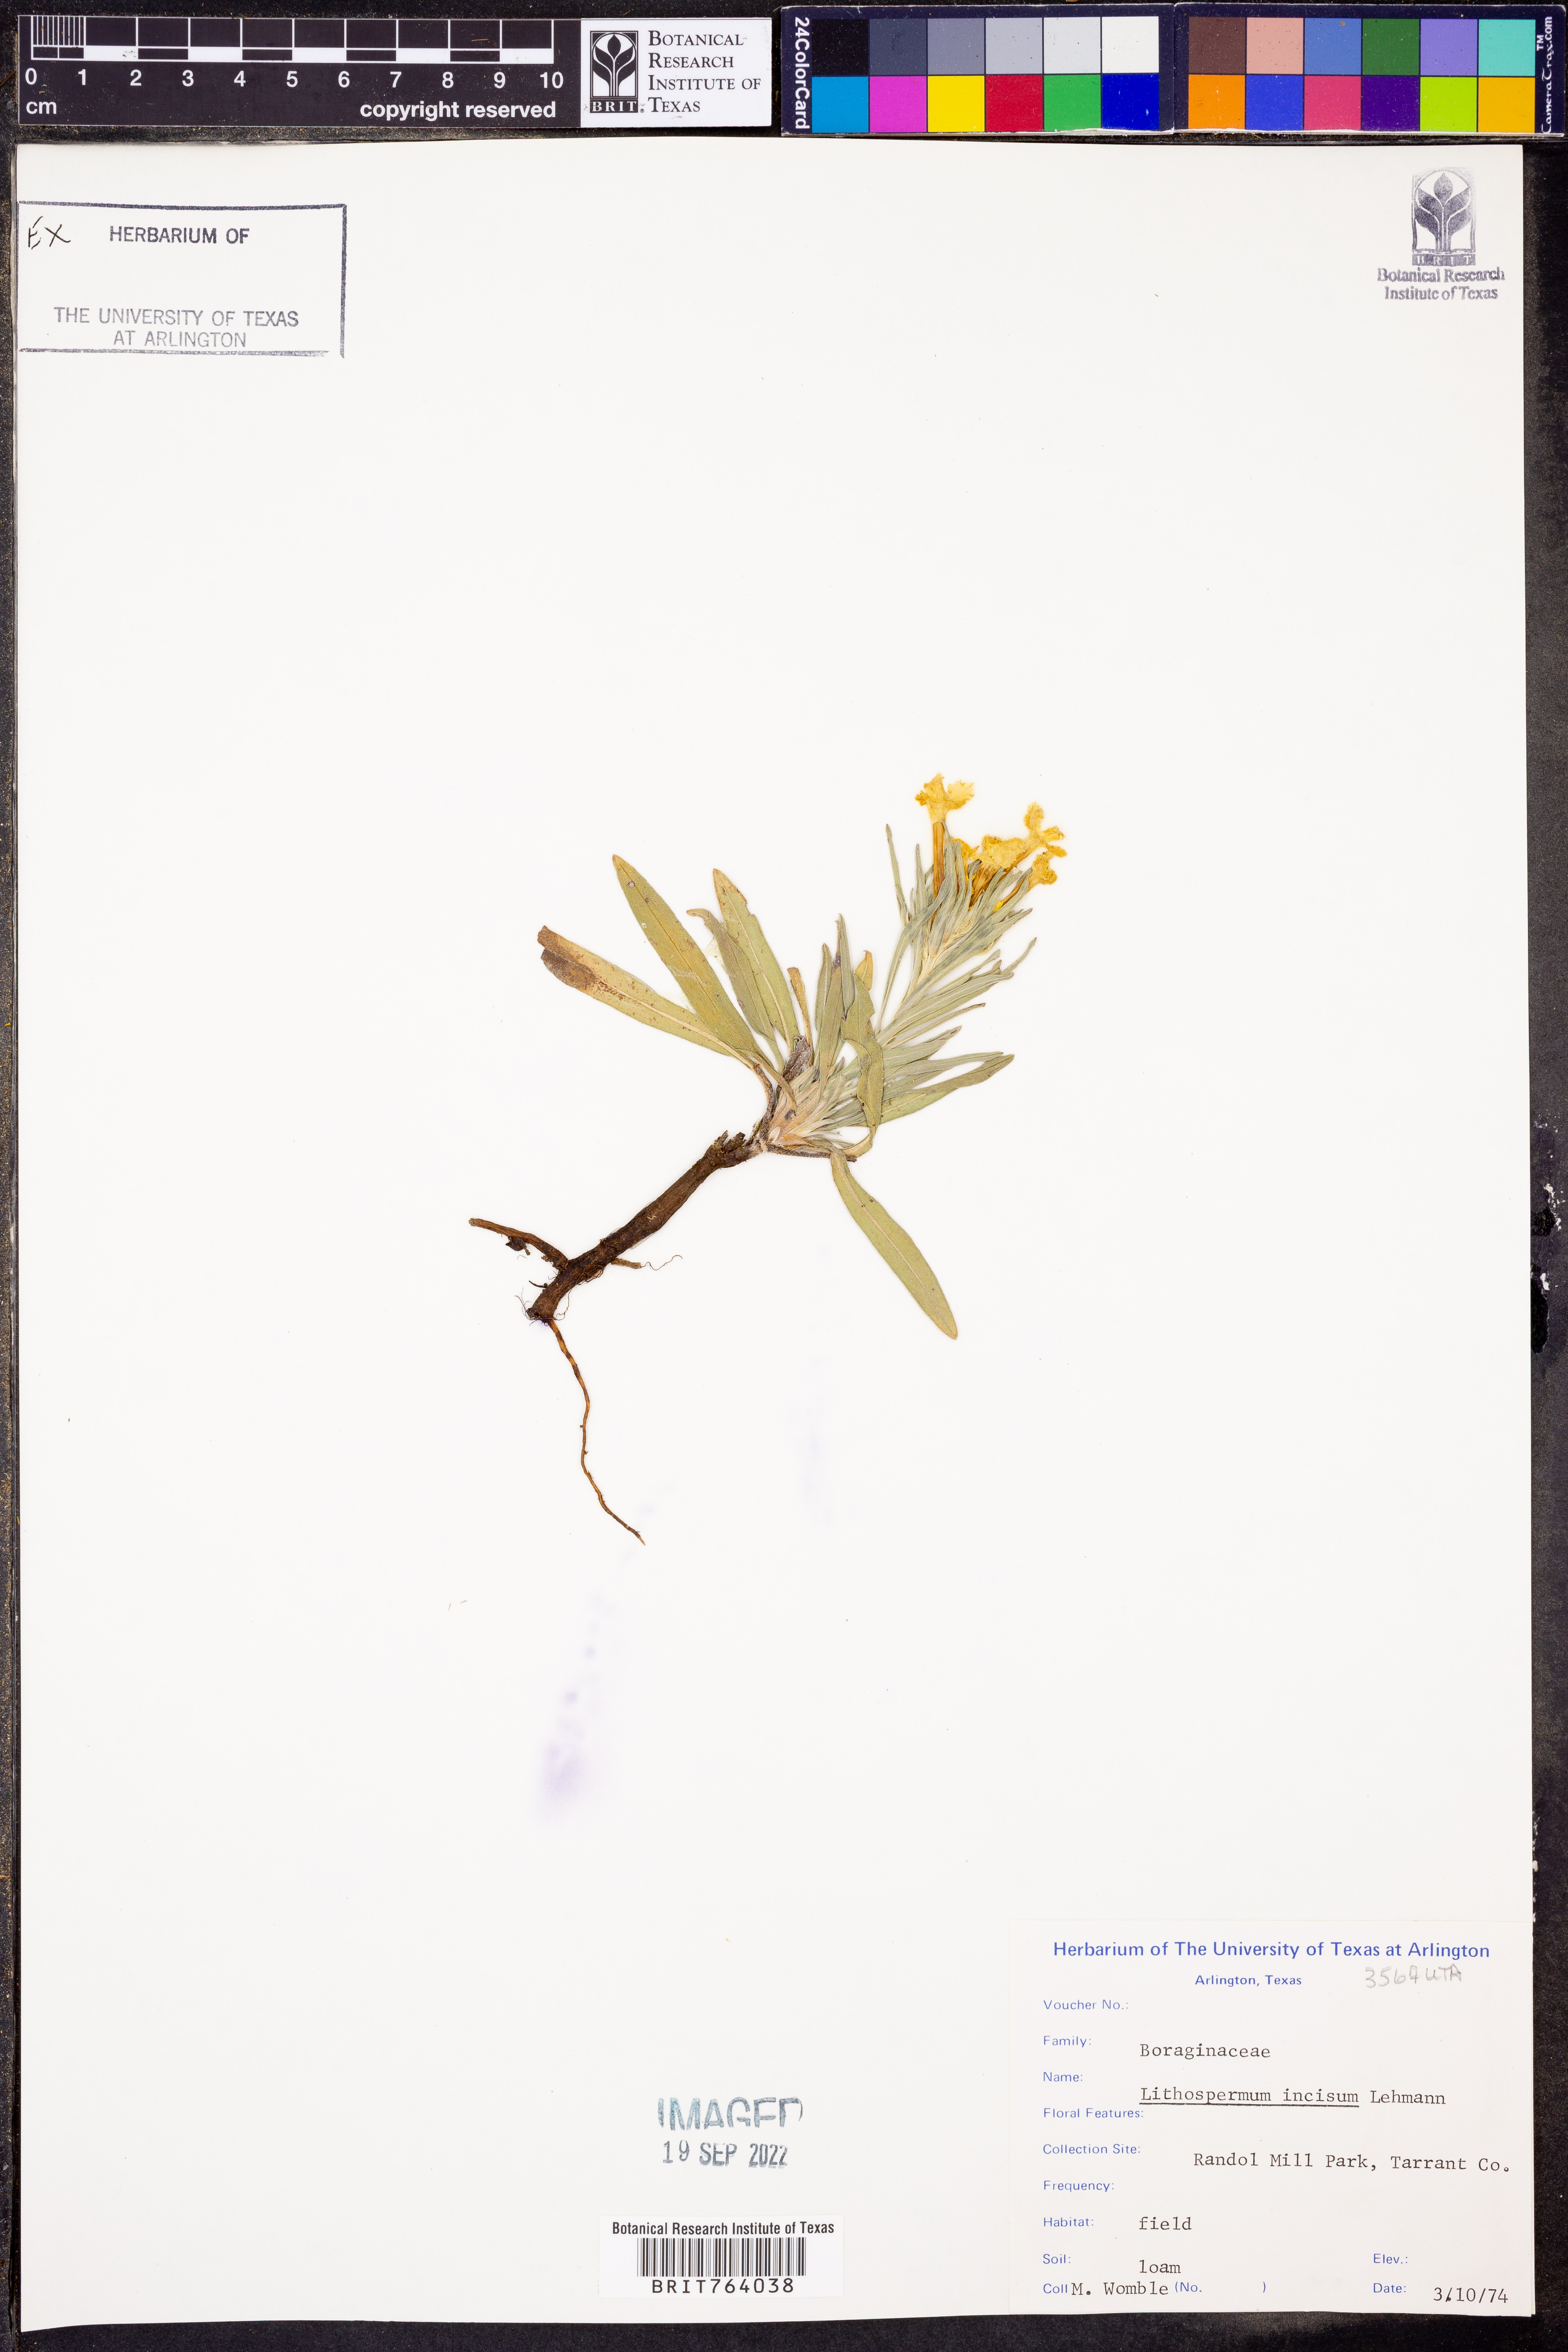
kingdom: Plantae
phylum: Tracheophyta
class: Magnoliopsida
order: Boraginales
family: Boraginaceae
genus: Lithospermum
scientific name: Lithospermum incisum
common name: Fringed gromwell
